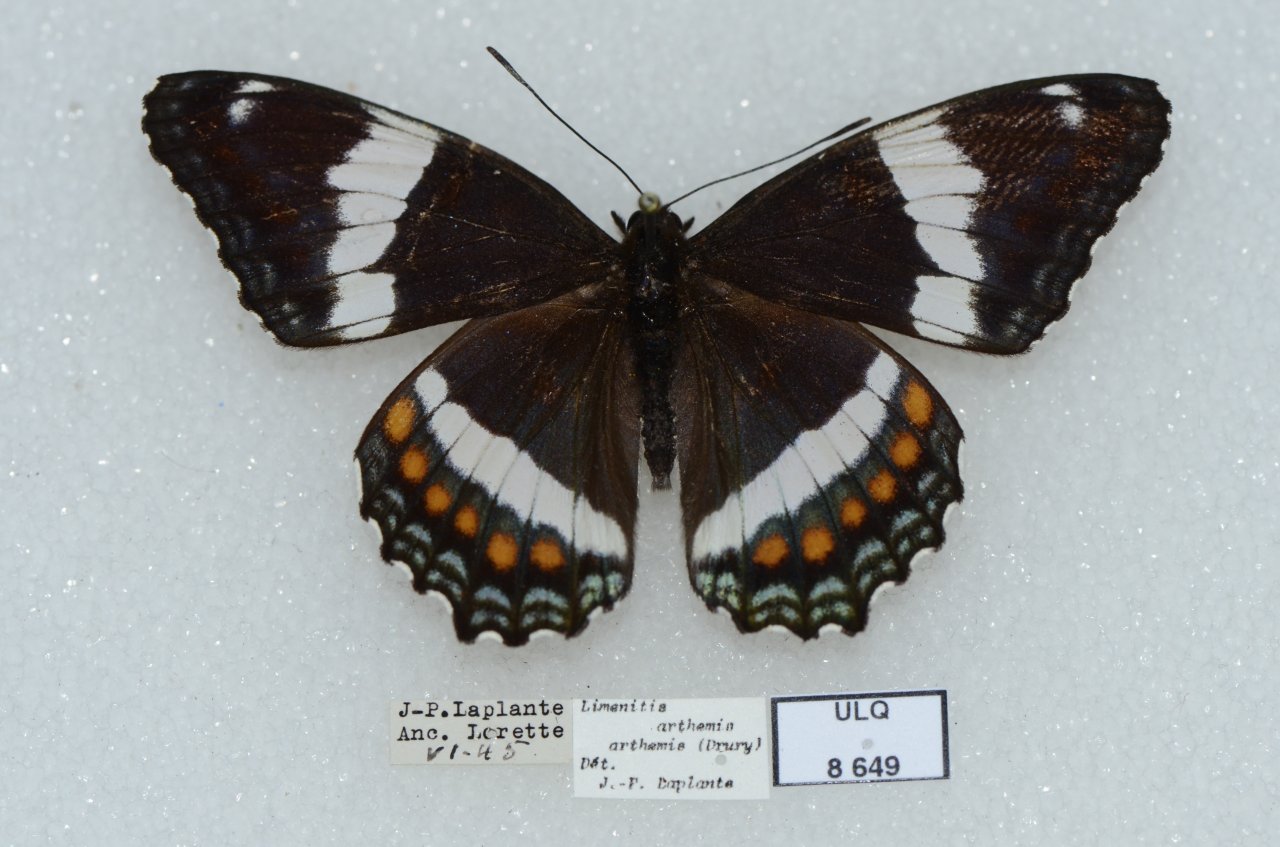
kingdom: Animalia
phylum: Arthropoda
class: Insecta
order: Lepidoptera
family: Nymphalidae
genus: Limenitis
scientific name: Limenitis arthemis
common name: Red-spotted Admiral
